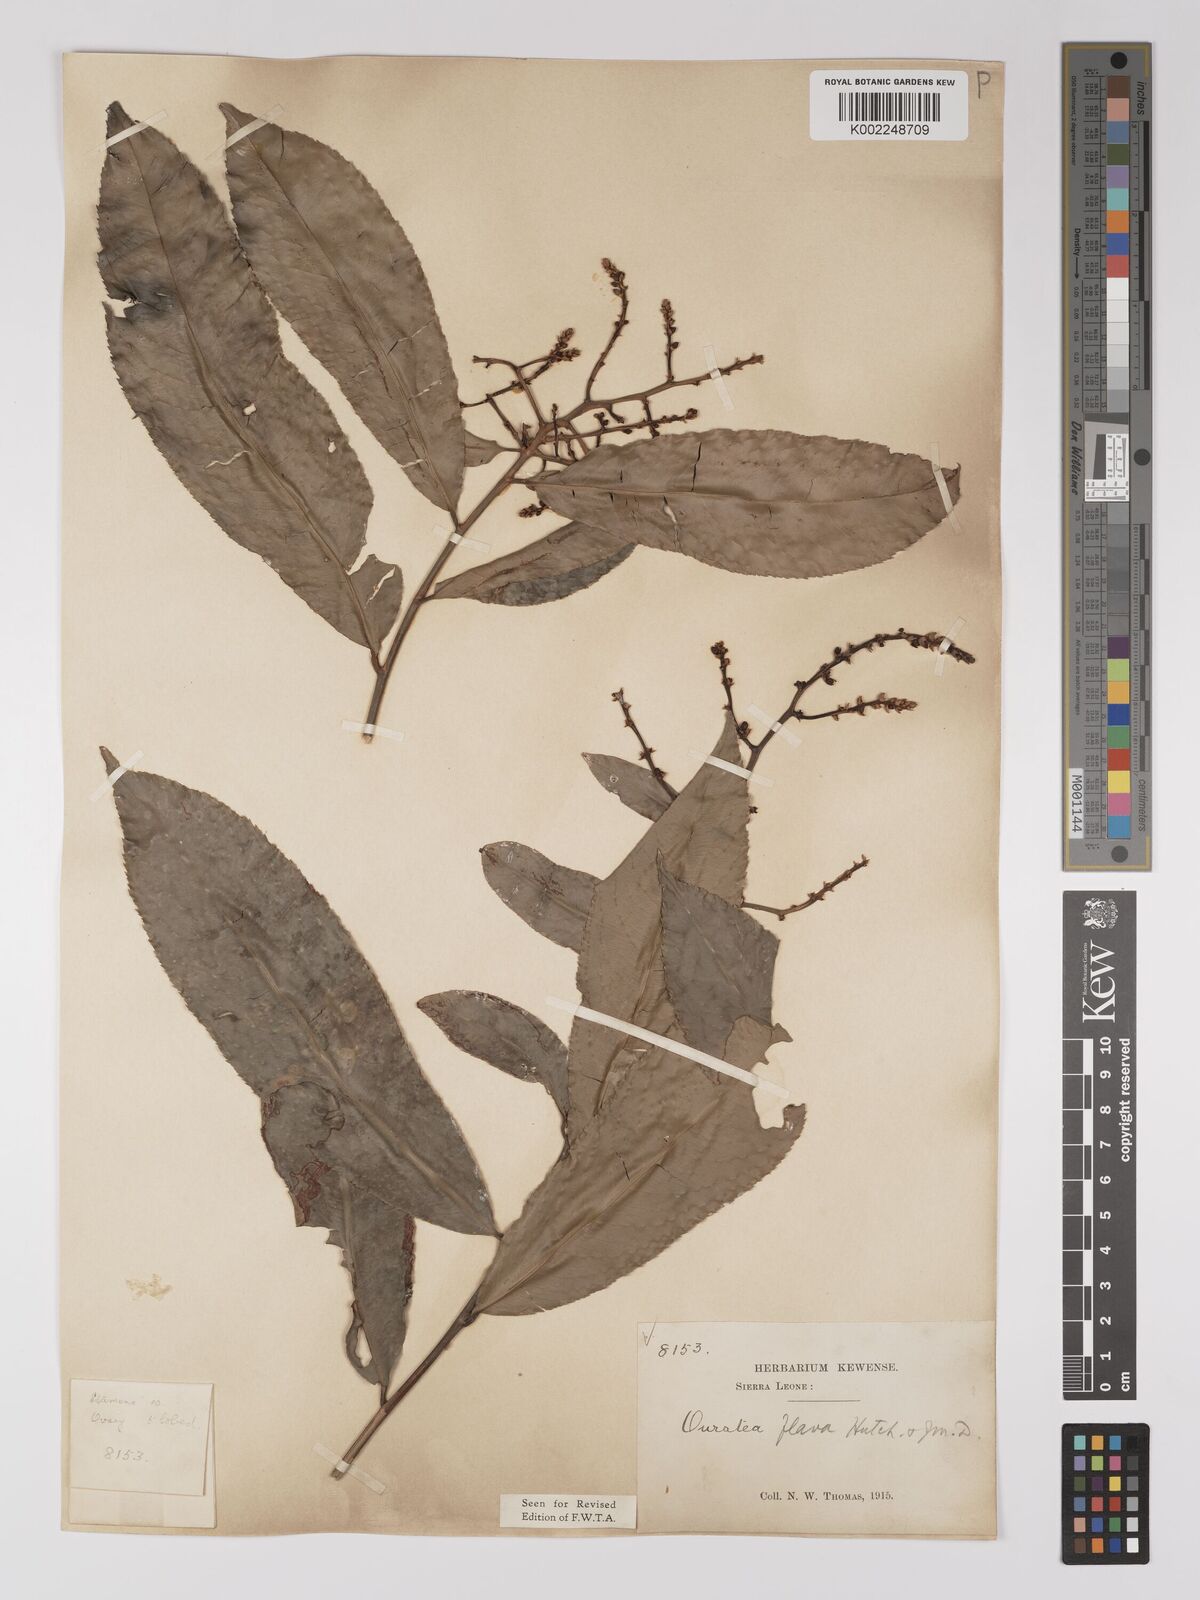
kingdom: Plantae
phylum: Tracheophyta
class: Magnoliopsida
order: Malpighiales
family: Ochnaceae
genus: Campylospermum
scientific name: Campylospermum flavum
